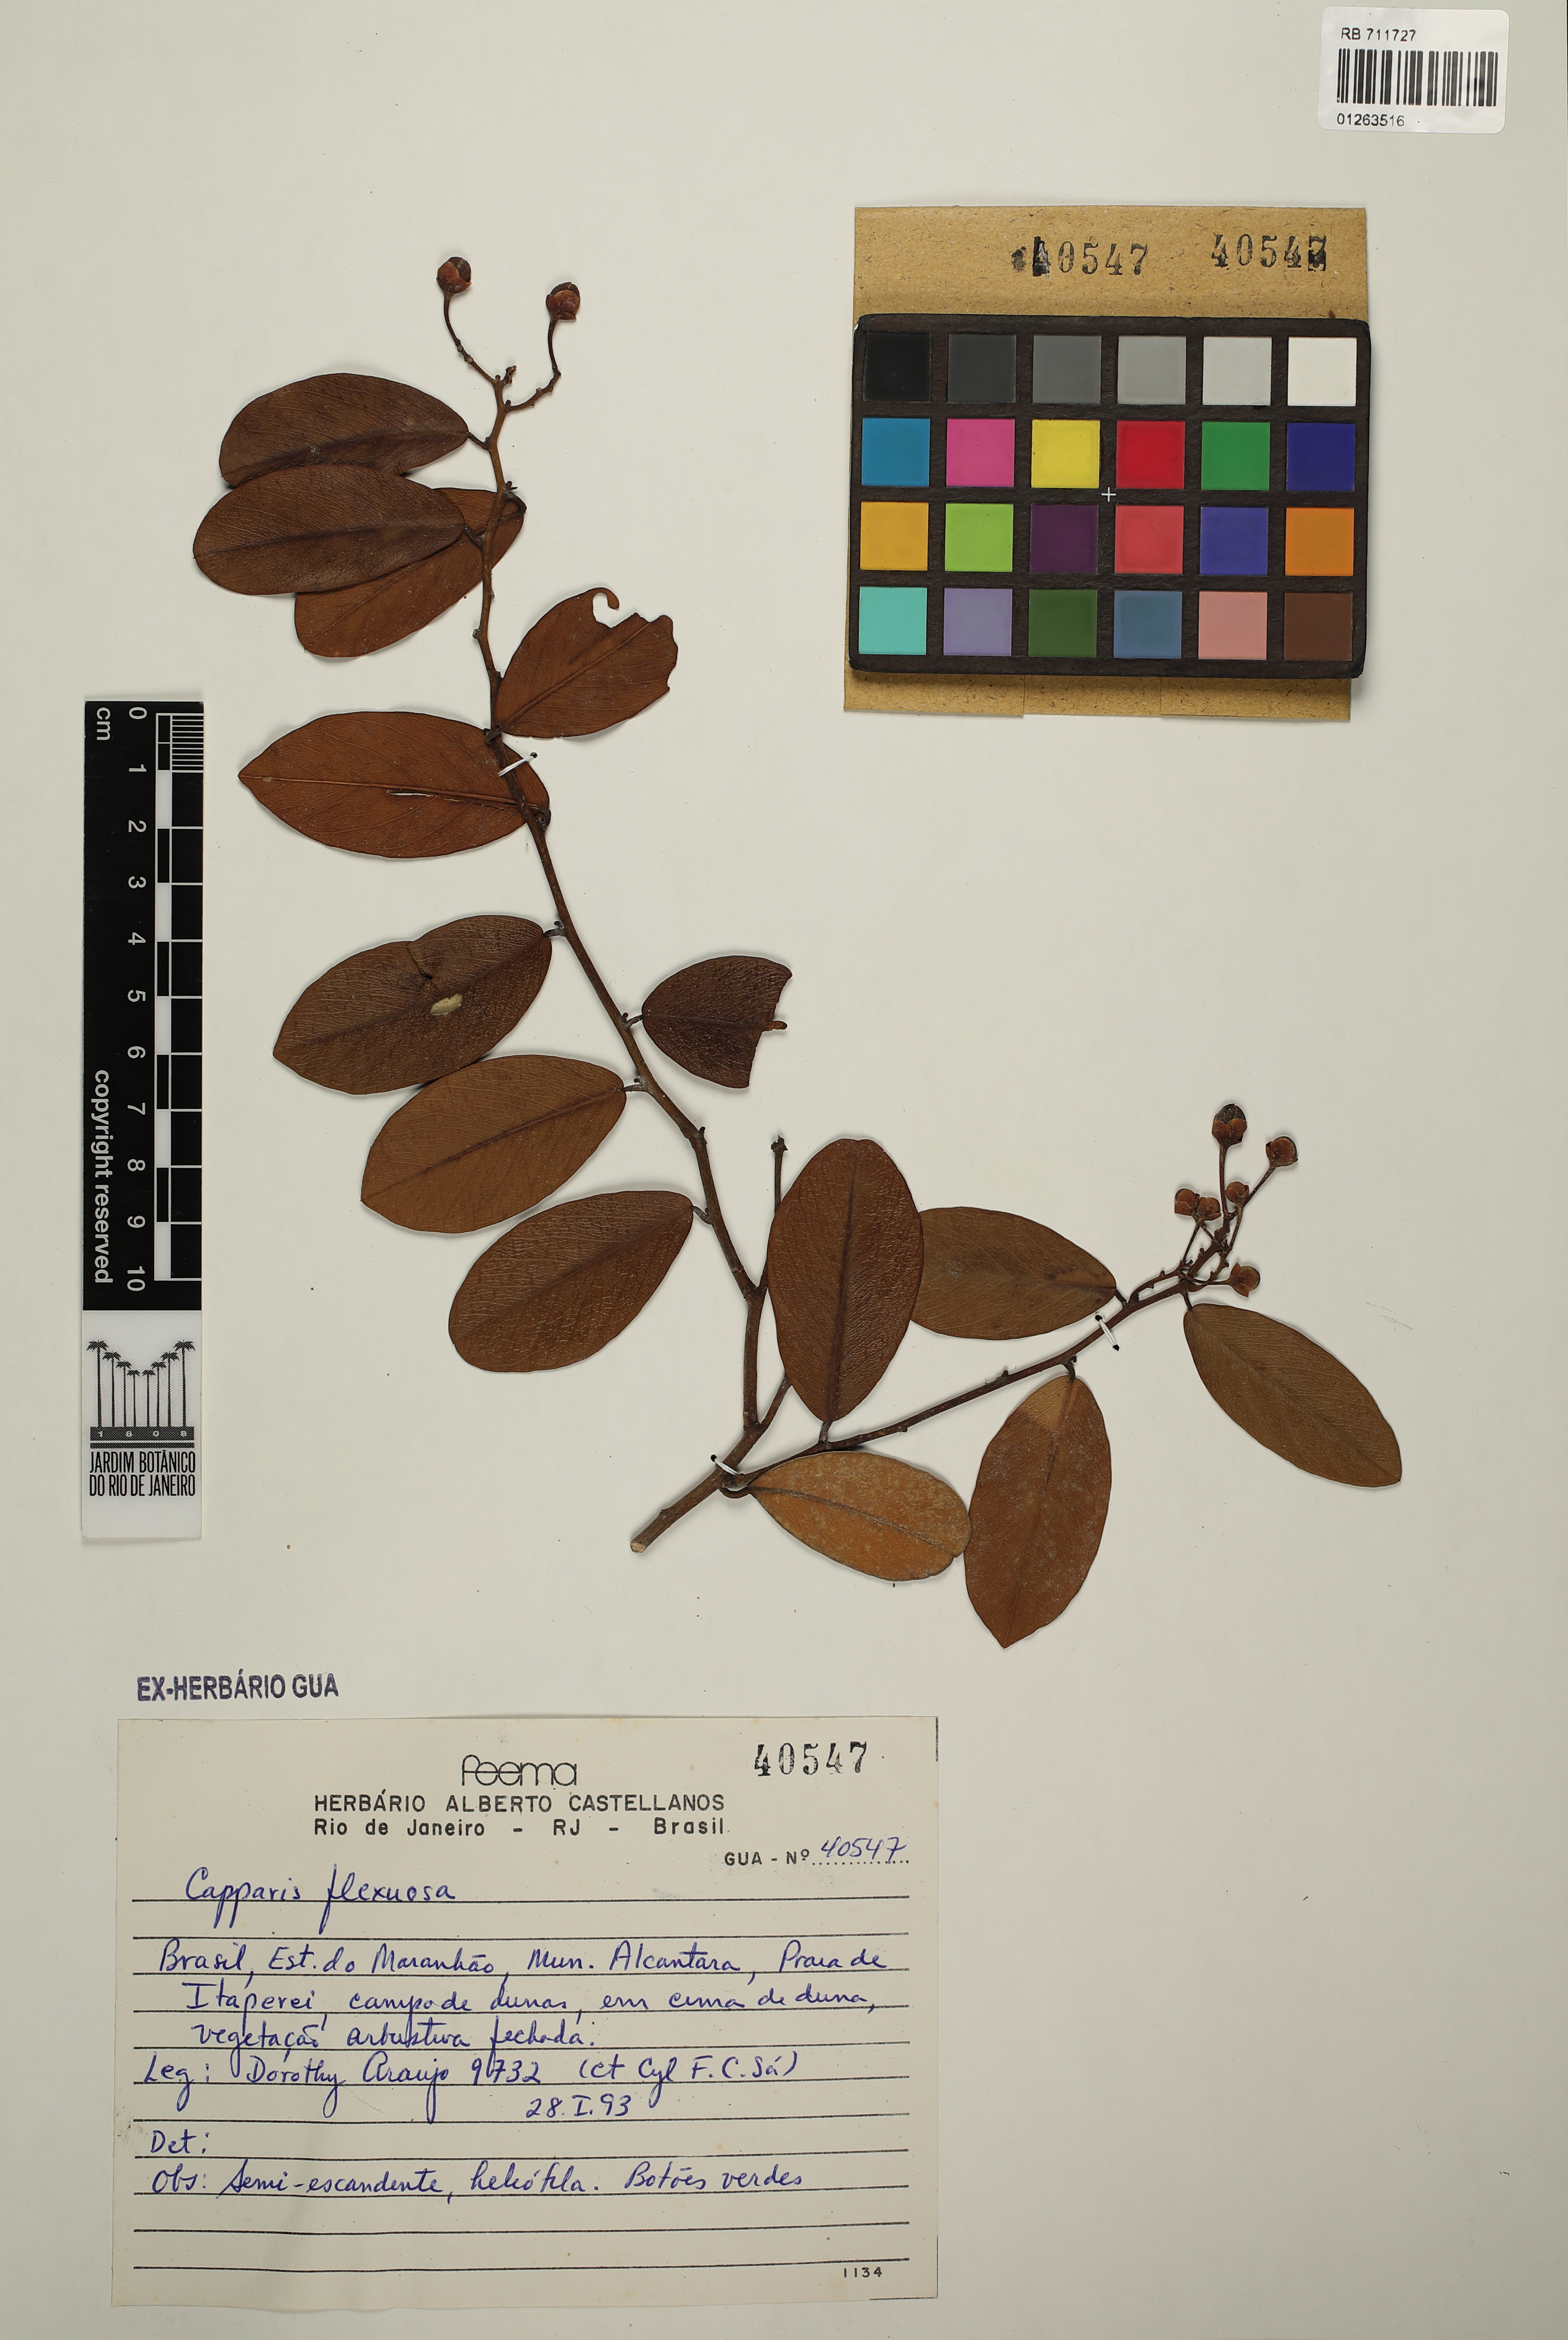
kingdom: Plantae
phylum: Tracheophyta
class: Magnoliopsida
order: Brassicales
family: Capparaceae
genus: Cynophalla
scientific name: Cynophalla flexuosa
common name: Capertree
